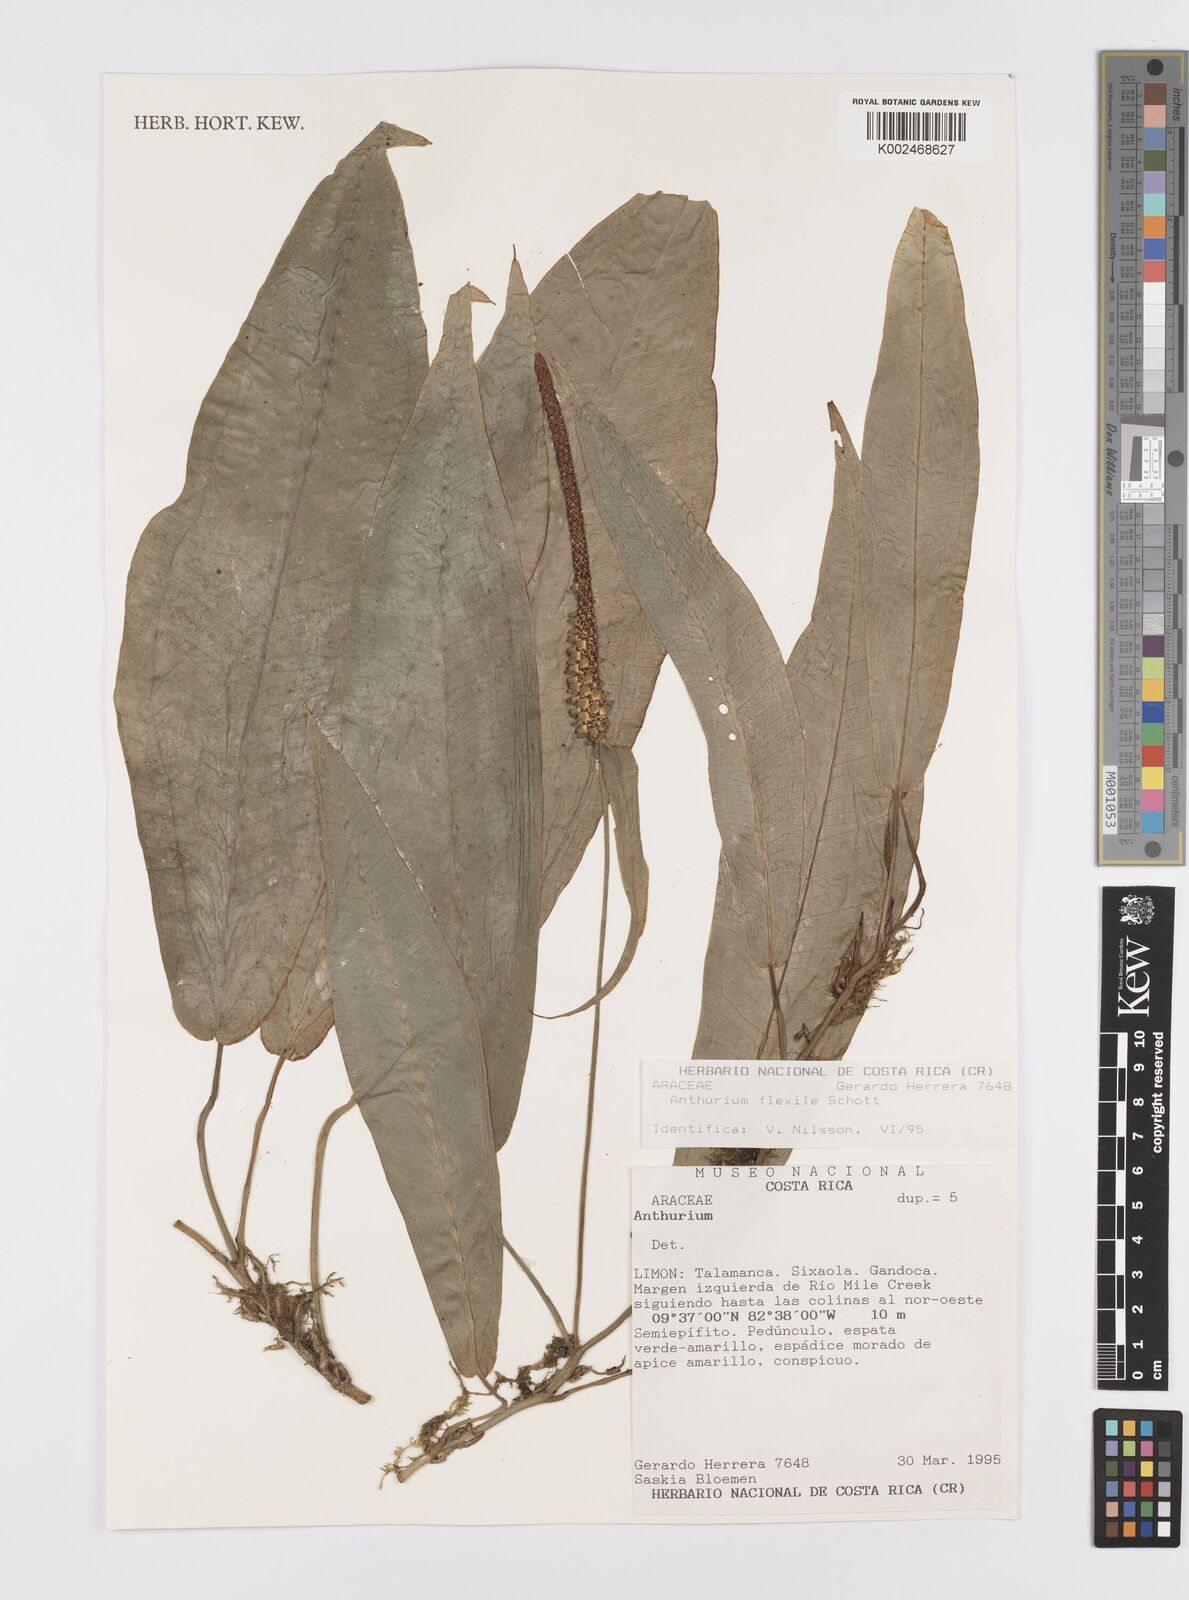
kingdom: Plantae
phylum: Tracheophyta
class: Liliopsida
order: Alismatales
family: Araceae
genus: Anthurium
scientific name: Anthurium flexile
